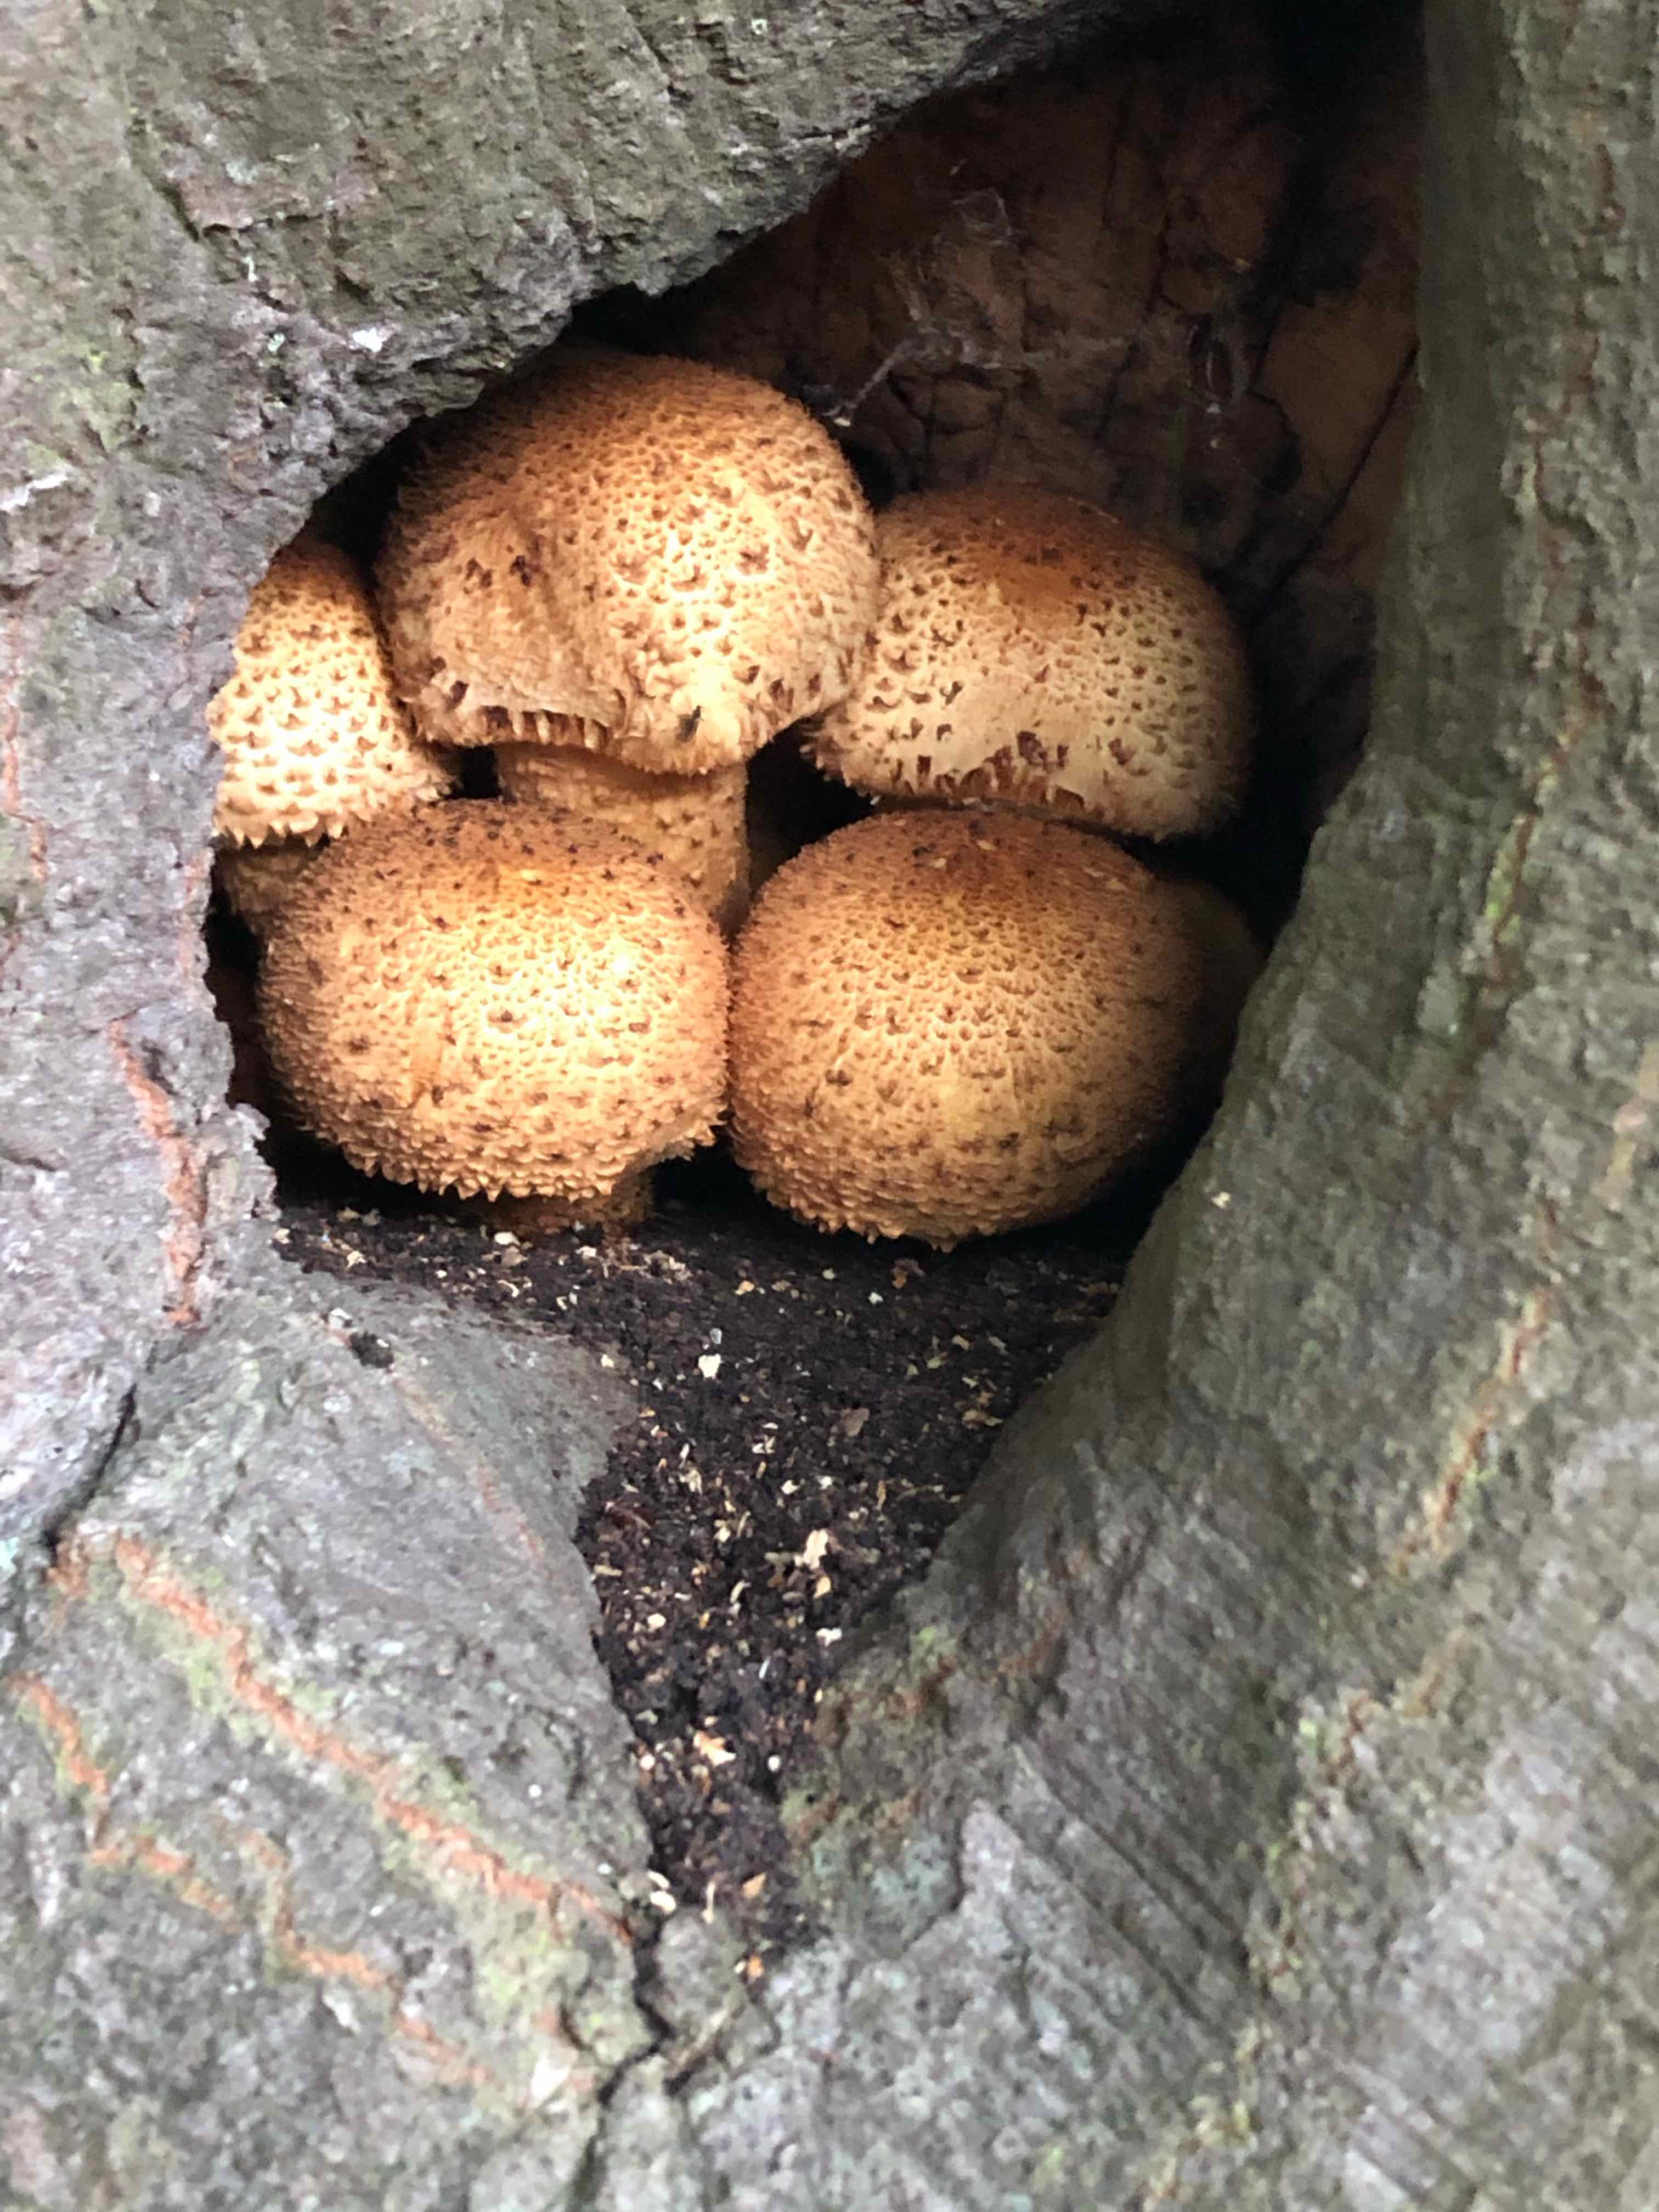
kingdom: Fungi
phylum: Basidiomycota
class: Agaricomycetes
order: Agaricales
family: Strophariaceae
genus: Pholiota
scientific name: Pholiota squarrosa
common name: krumskællet skælhat
